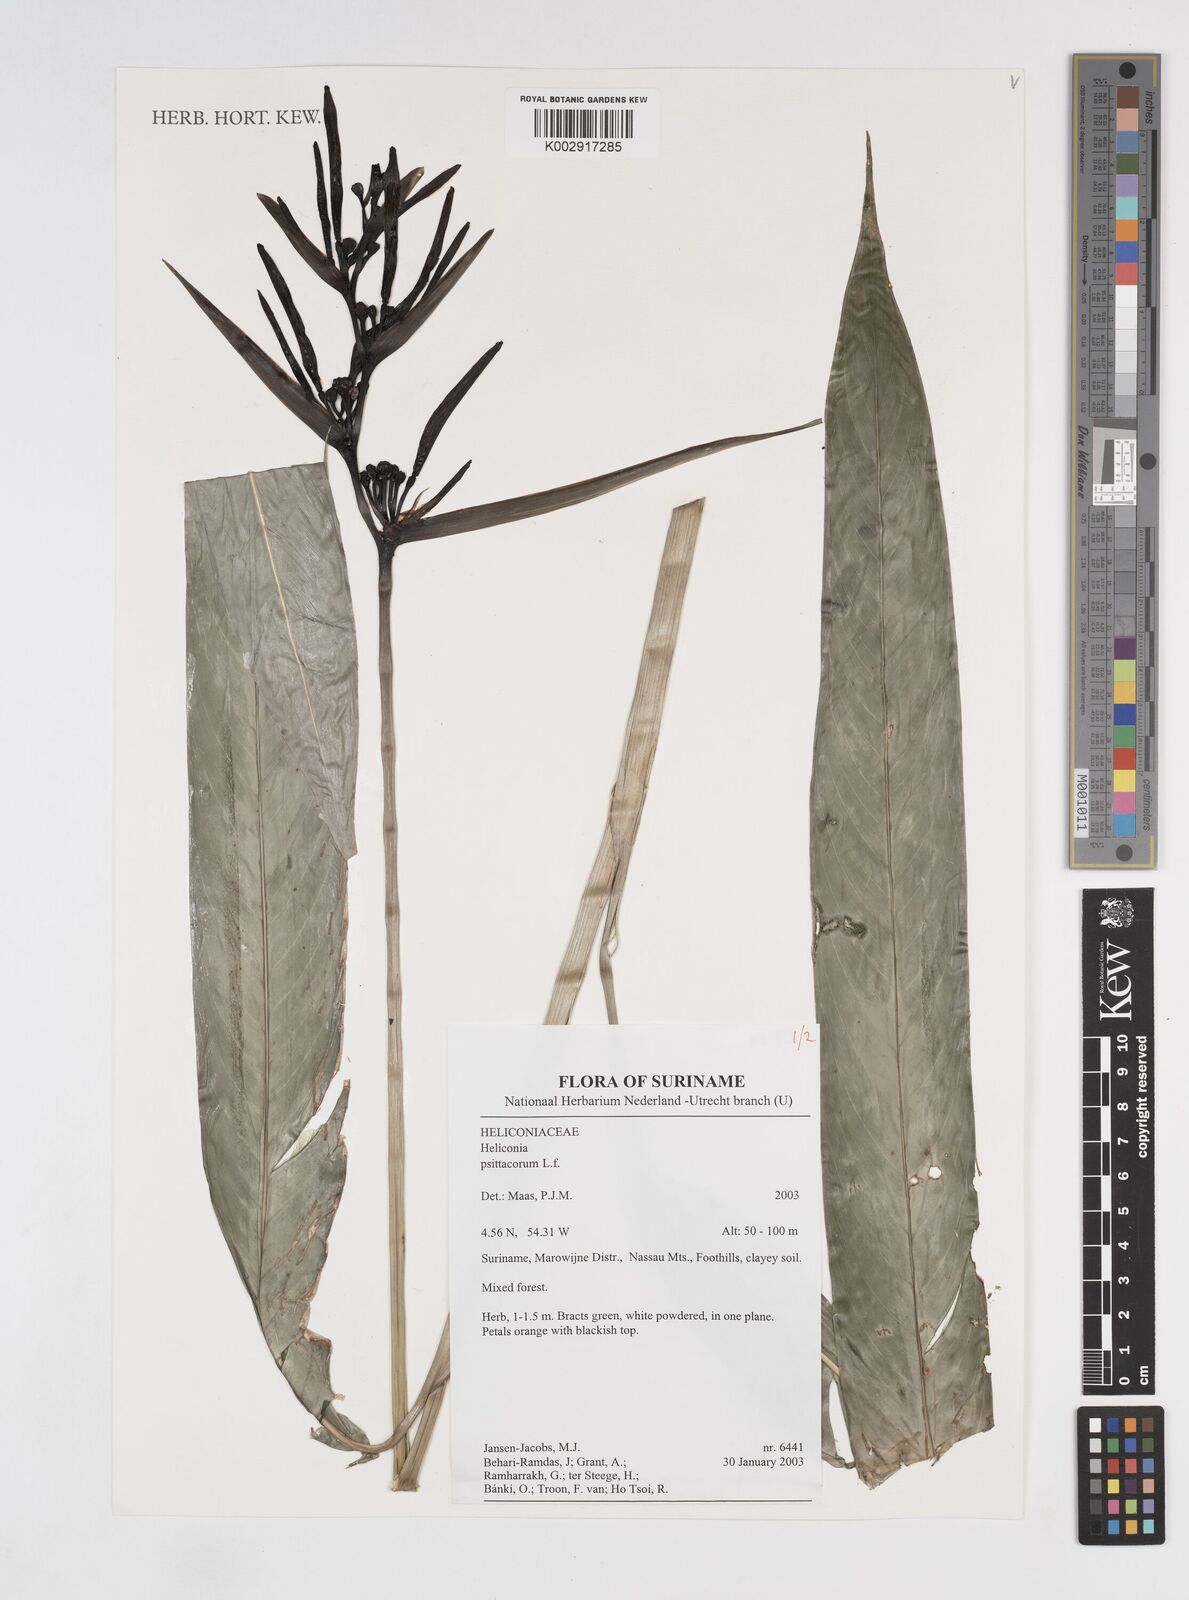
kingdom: Plantae
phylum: Tracheophyta
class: Liliopsida
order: Zingiberales
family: Heliconiaceae
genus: Heliconia
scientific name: Heliconia psittacorum
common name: Parrot's-flower
